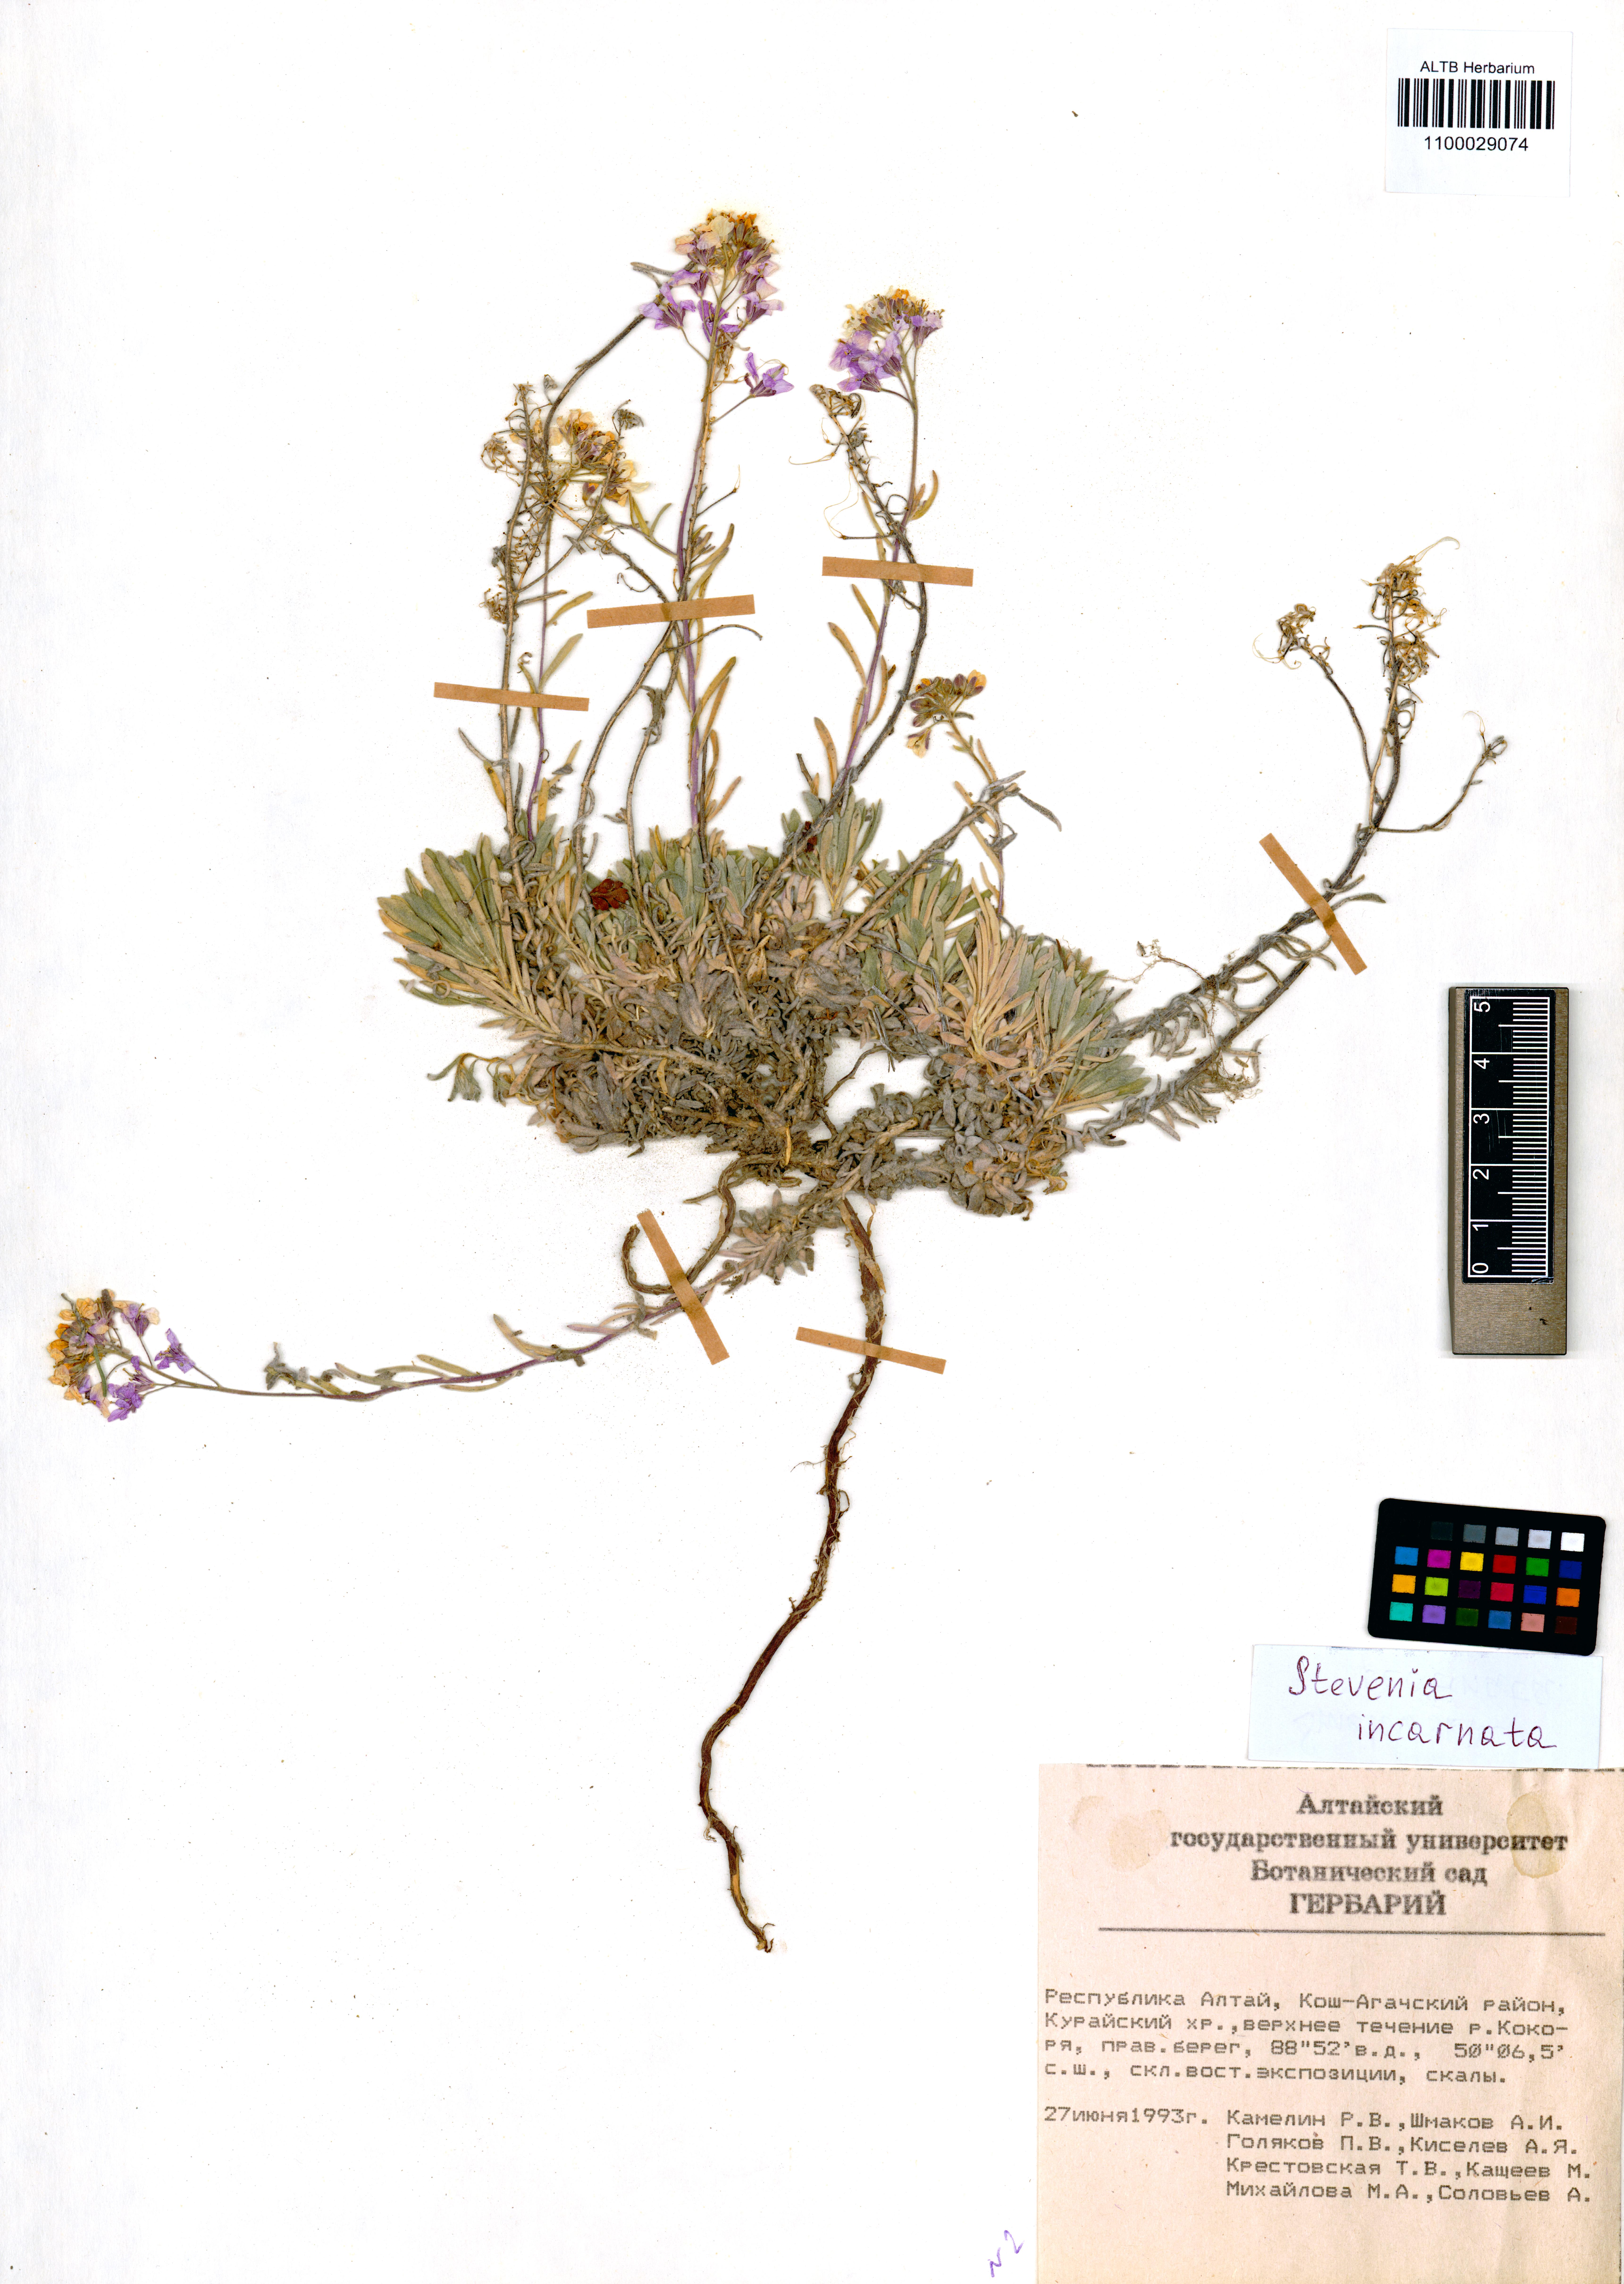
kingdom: Plantae
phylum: Tracheophyta
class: Magnoliopsida
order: Brassicales
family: Brassicaceae
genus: Stevenia
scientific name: Stevenia incarnata
